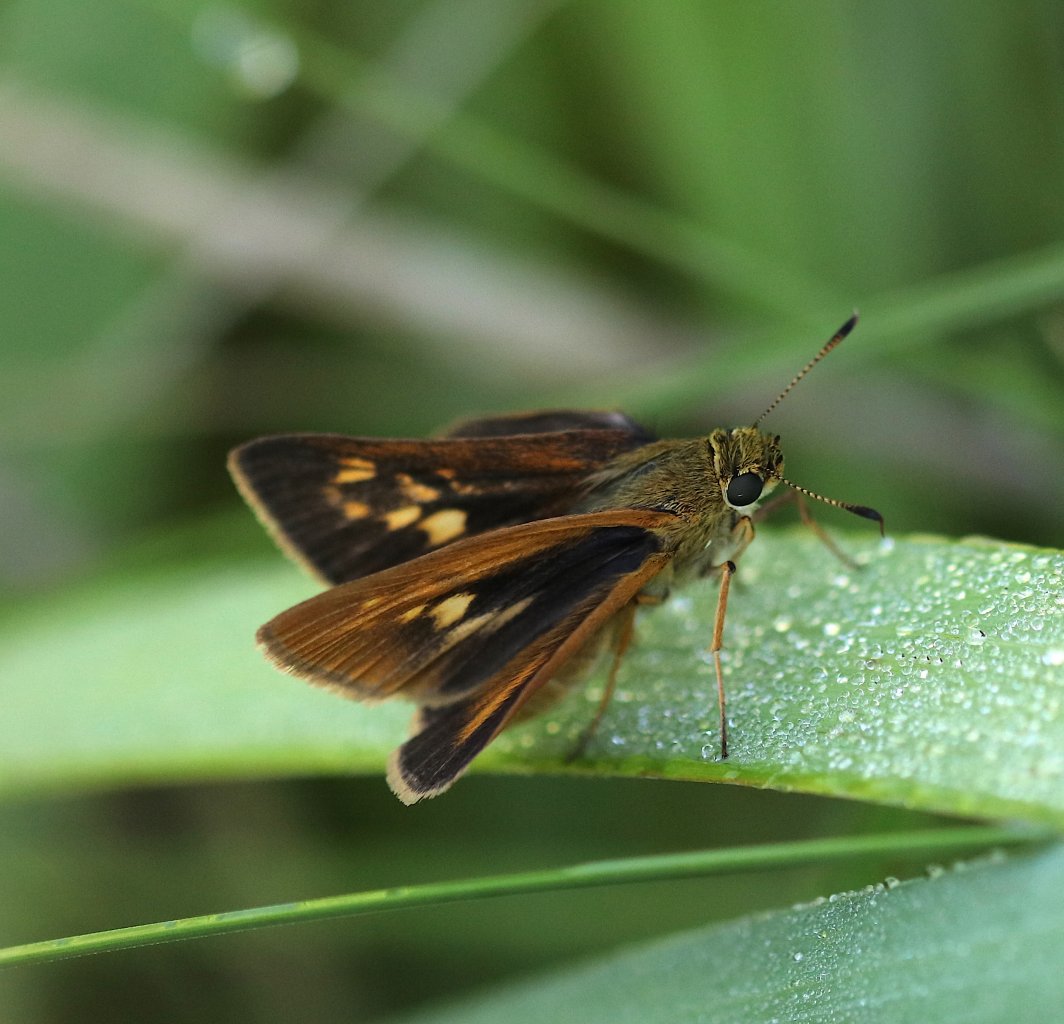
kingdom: Animalia
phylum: Arthropoda
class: Insecta
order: Lepidoptera
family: Hesperiidae
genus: Poanes
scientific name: Poanes viator
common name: Broad-winged Skipper
